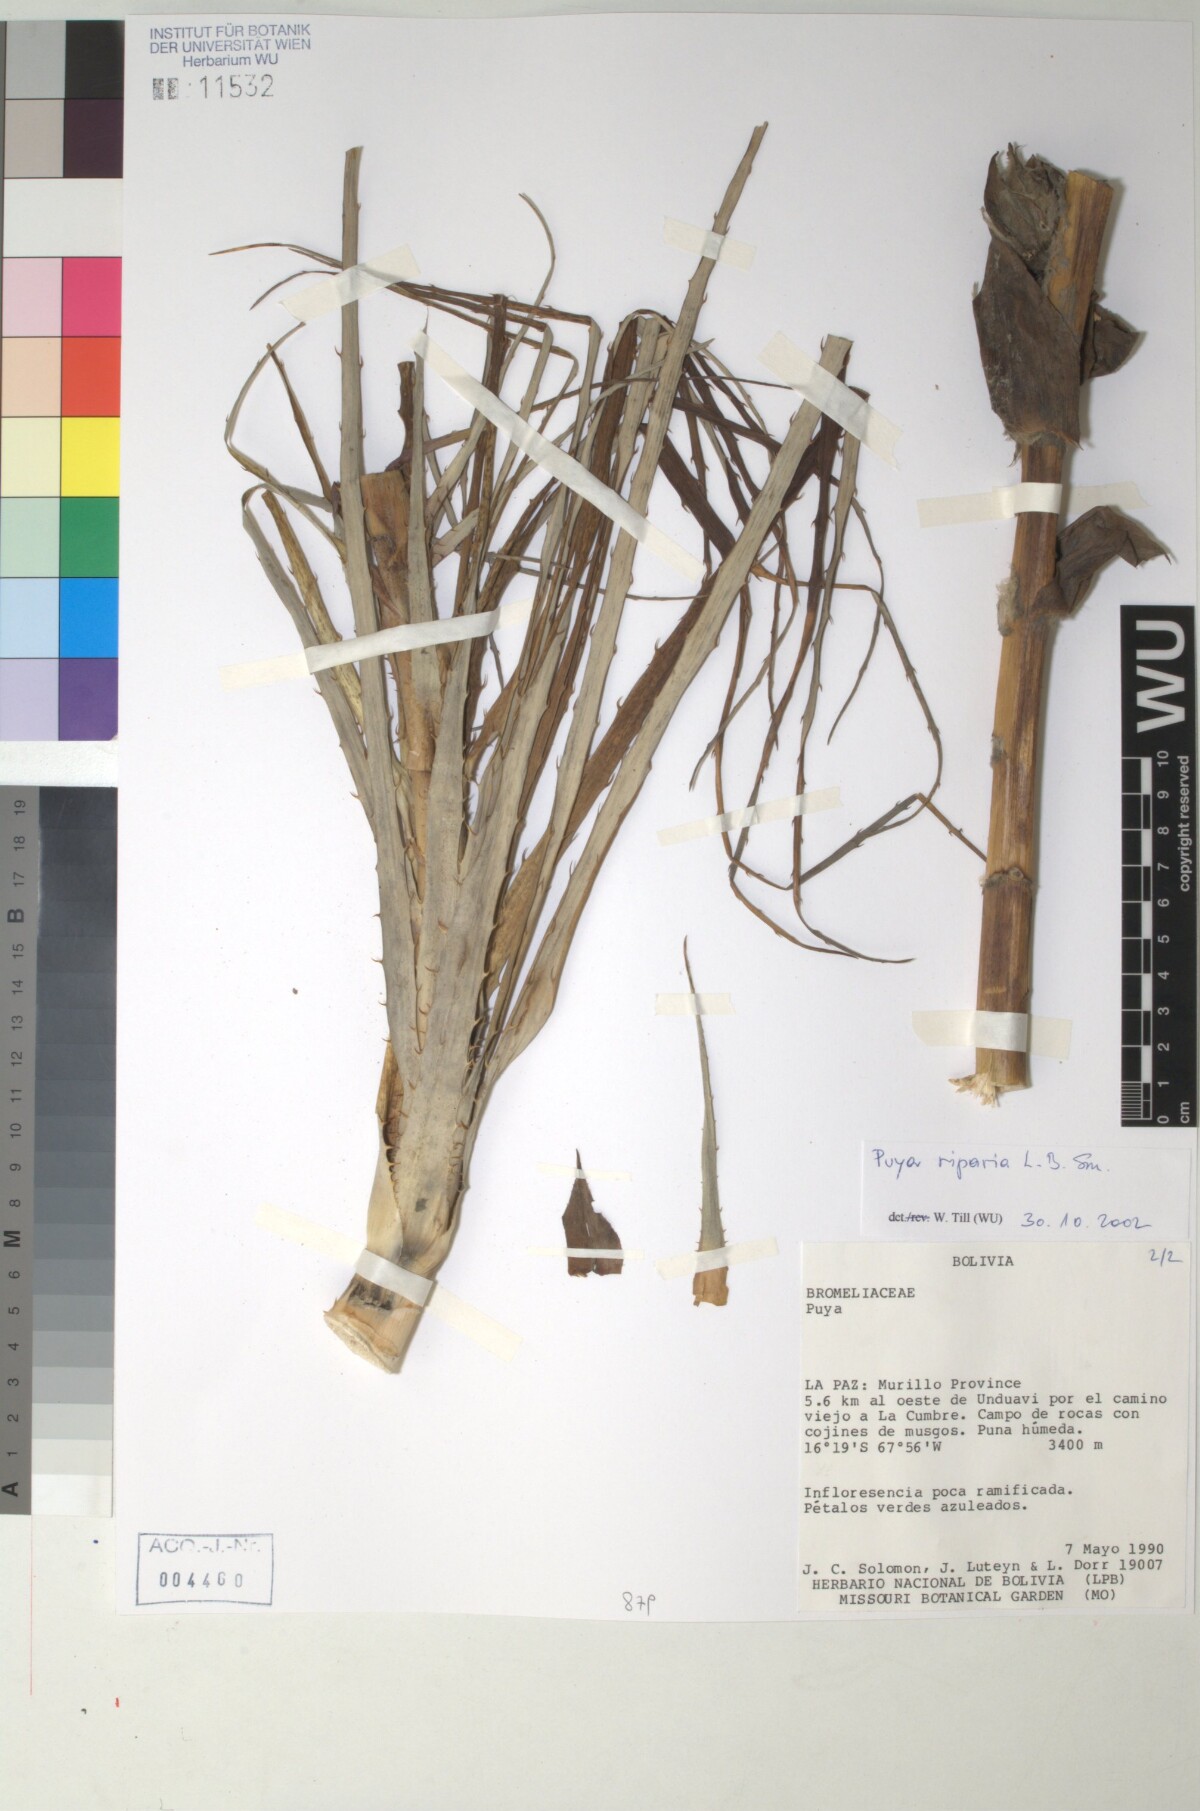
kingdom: Plantae
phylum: Tracheophyta
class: Liliopsida
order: Poales
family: Bromeliaceae
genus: Puya
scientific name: Puya riparia
